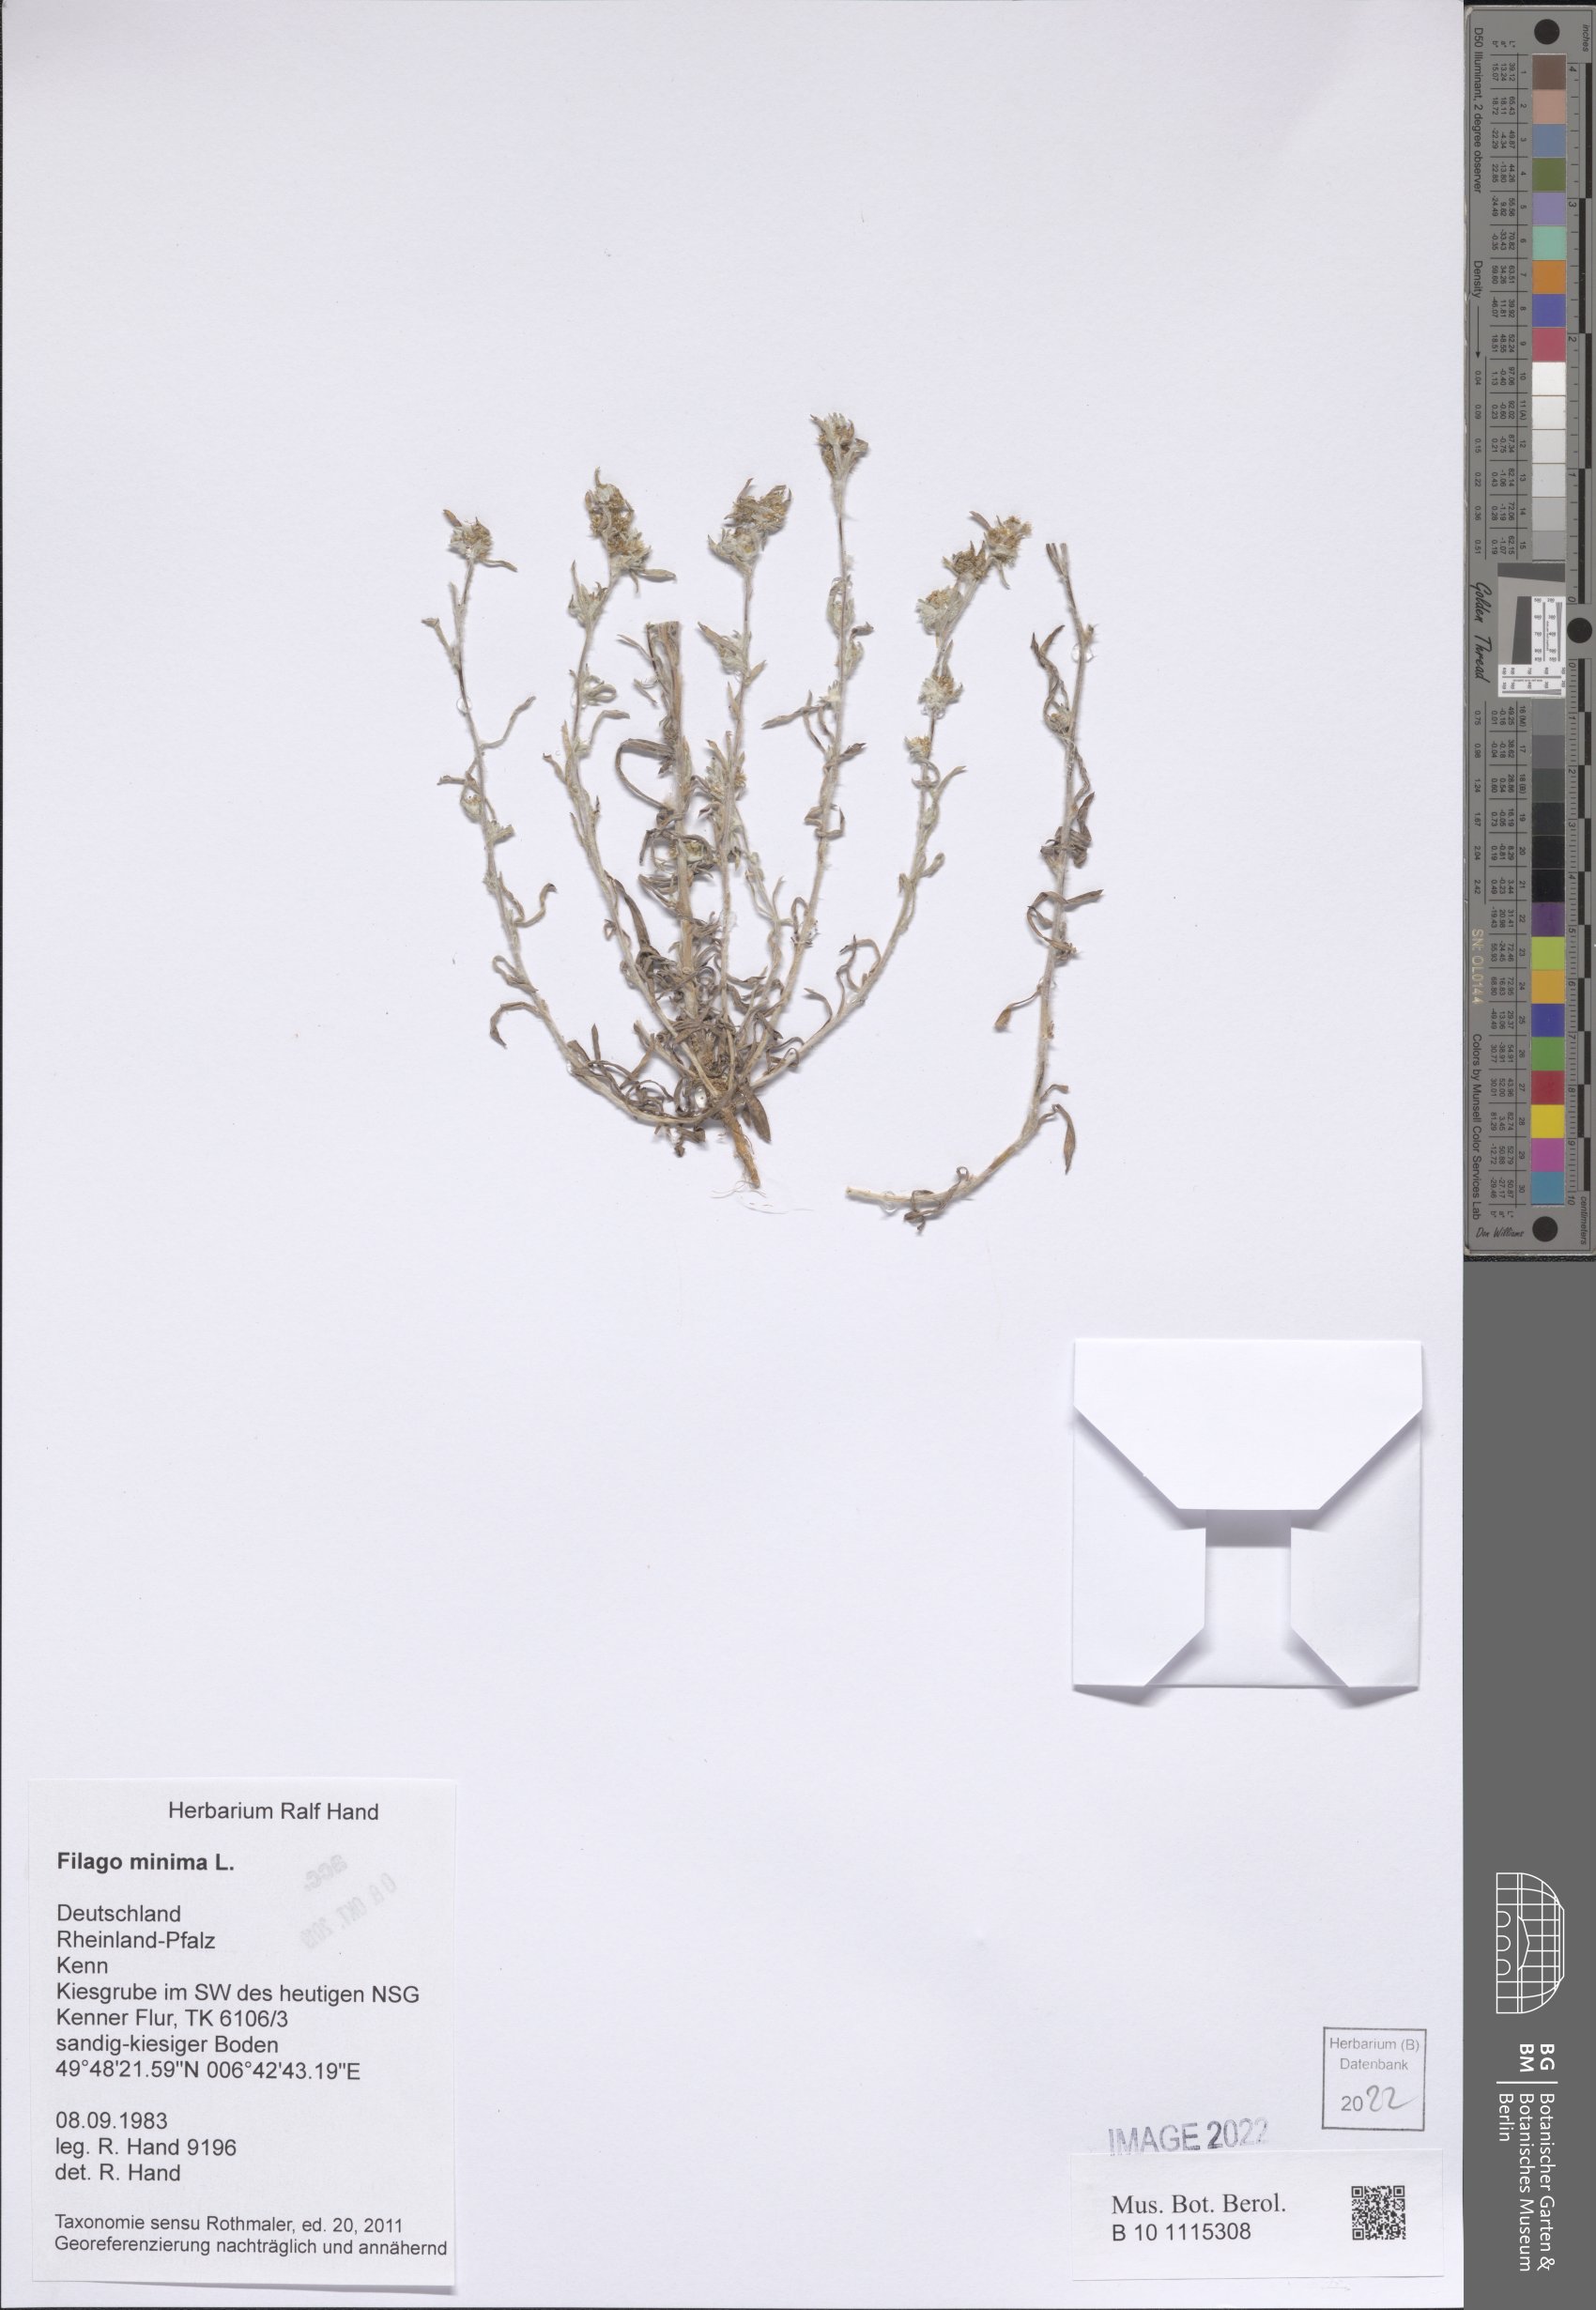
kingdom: Plantae
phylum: Tracheophyta
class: Magnoliopsida
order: Asterales
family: Asteraceae
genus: Logfia
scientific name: Logfia minima
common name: Little cottonrose
